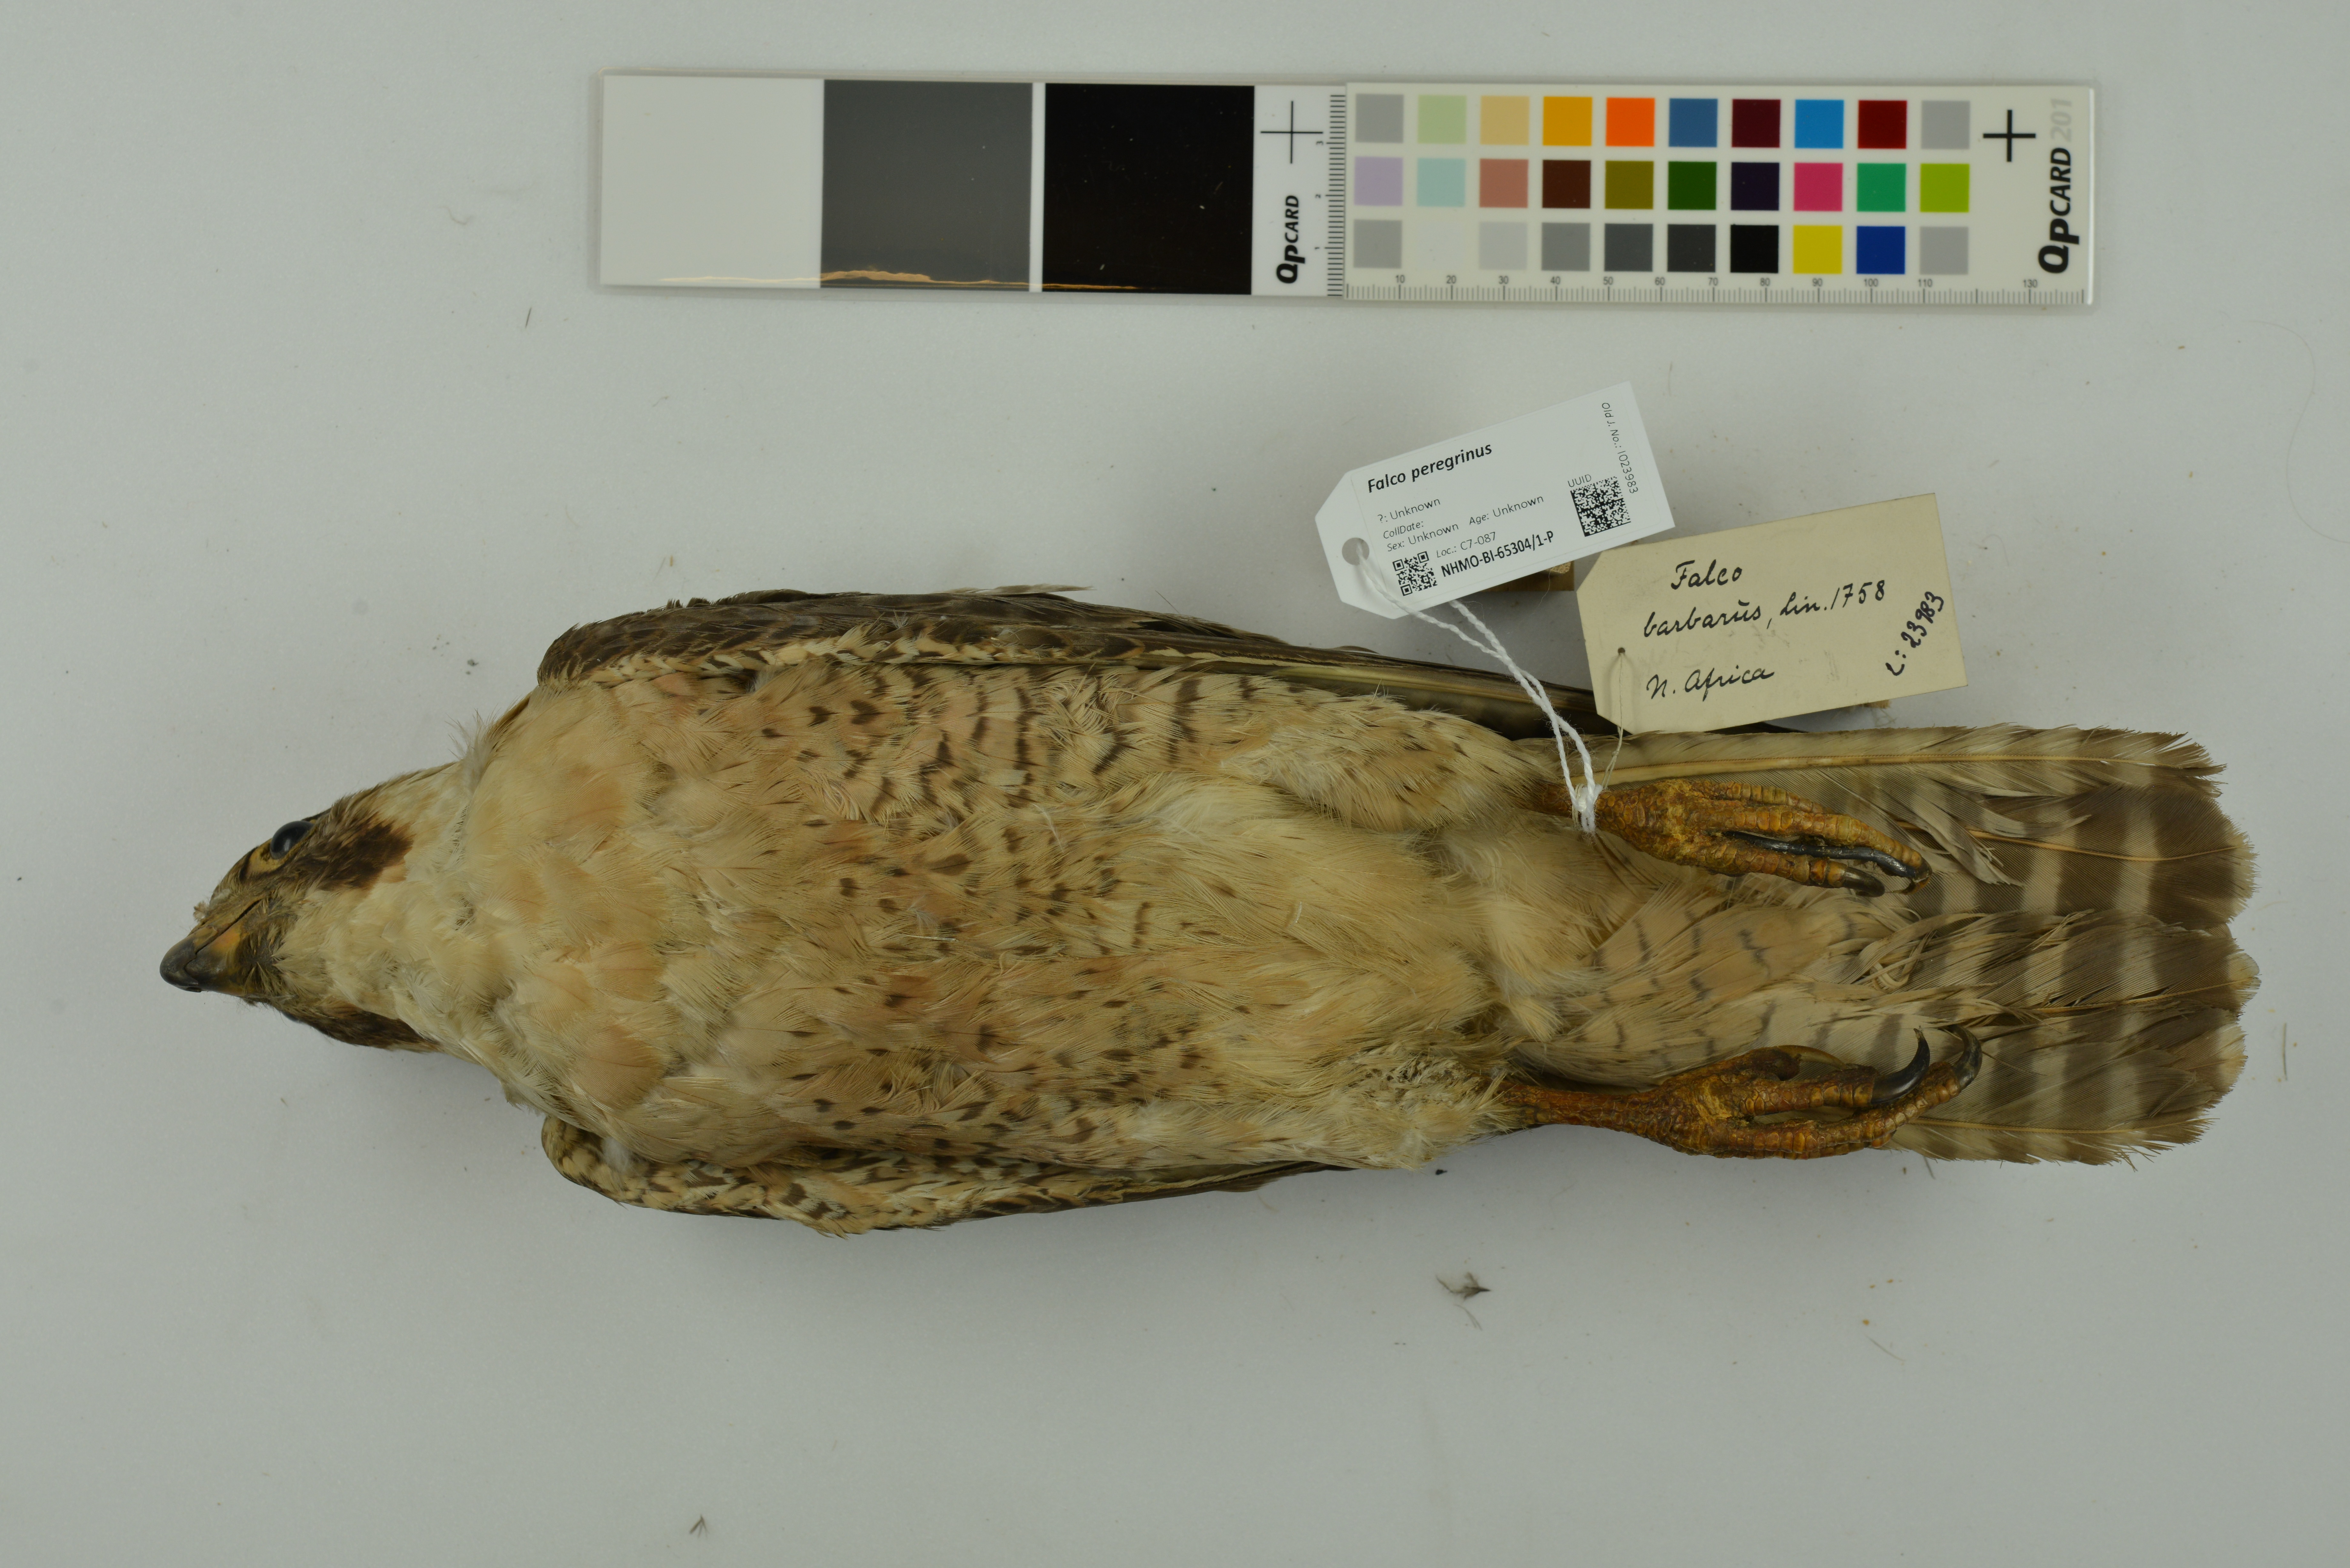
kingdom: Animalia
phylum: Chordata
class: Aves
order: Falconiformes
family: Falconidae
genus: Falco
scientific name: Falco peregrinus
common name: Peregrine falcon
